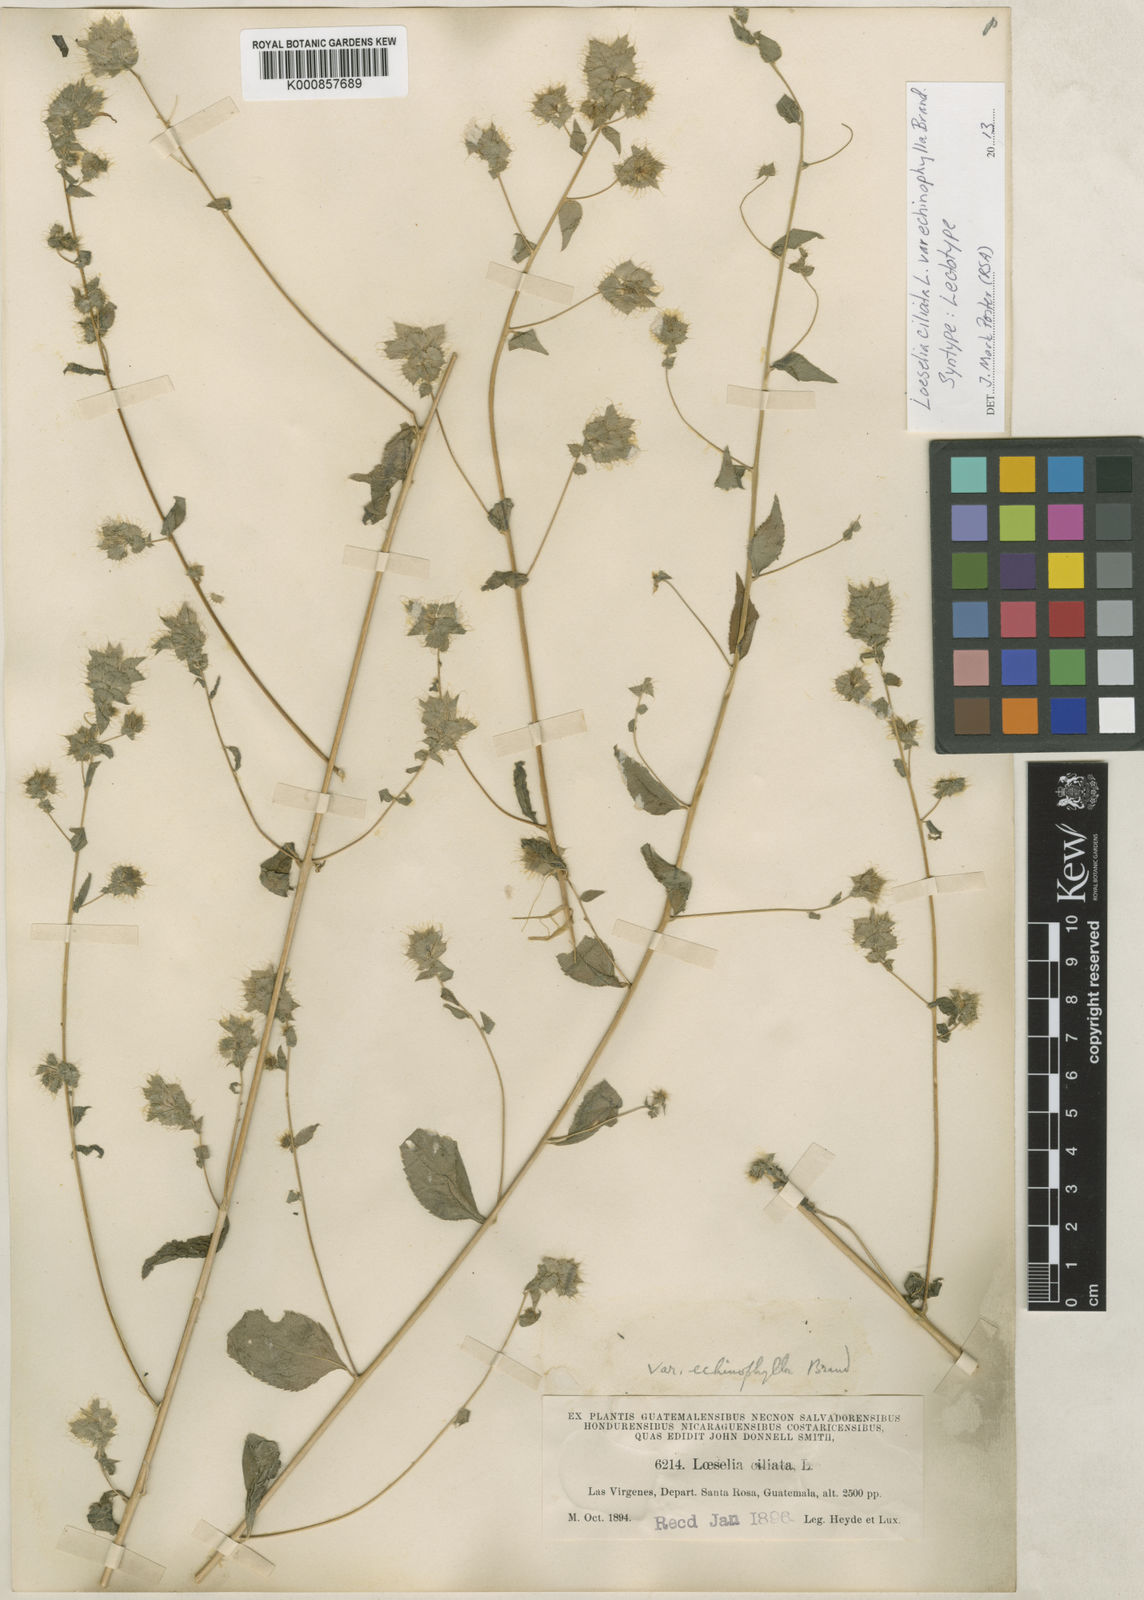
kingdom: Plantae
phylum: Tracheophyta
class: Magnoliopsida
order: Ericales
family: Polemoniaceae
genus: Loeselia
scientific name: Loeselia ciliata
